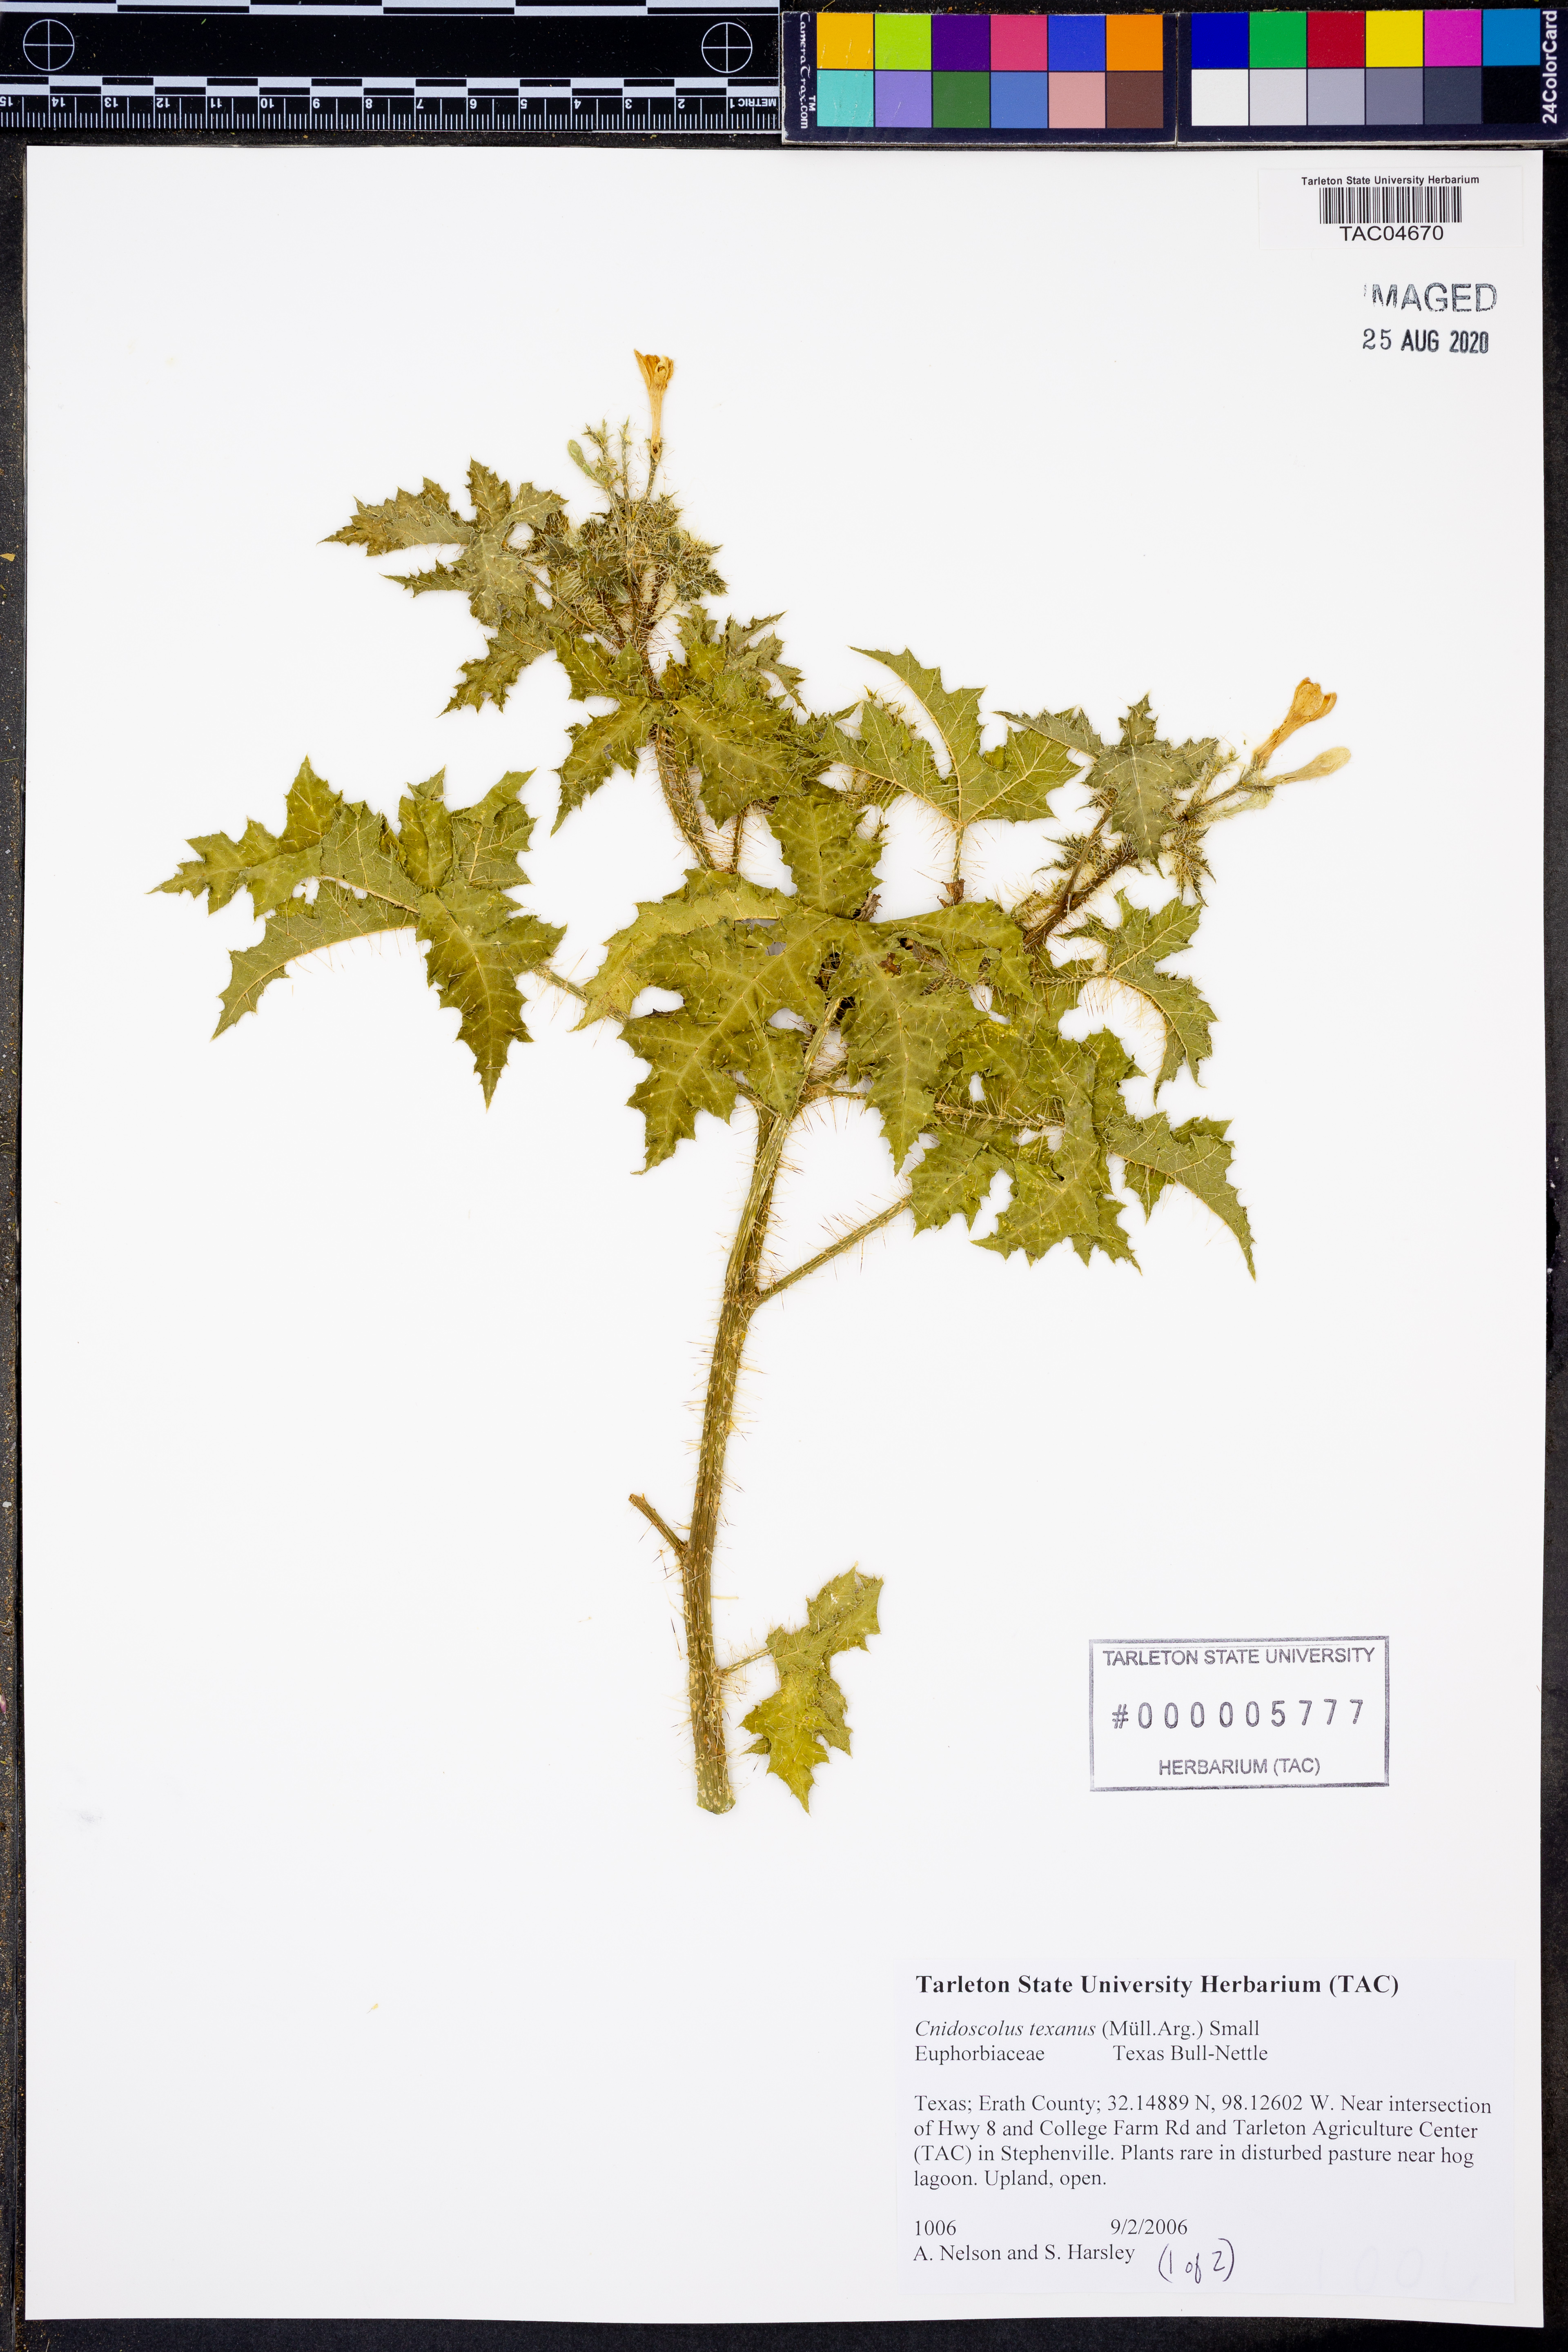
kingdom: Plantae
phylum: Tracheophyta
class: Magnoliopsida
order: Malpighiales
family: Euphorbiaceae
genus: Cnidoscolus
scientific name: Cnidoscolus texanus
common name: Texas bull-nettle
